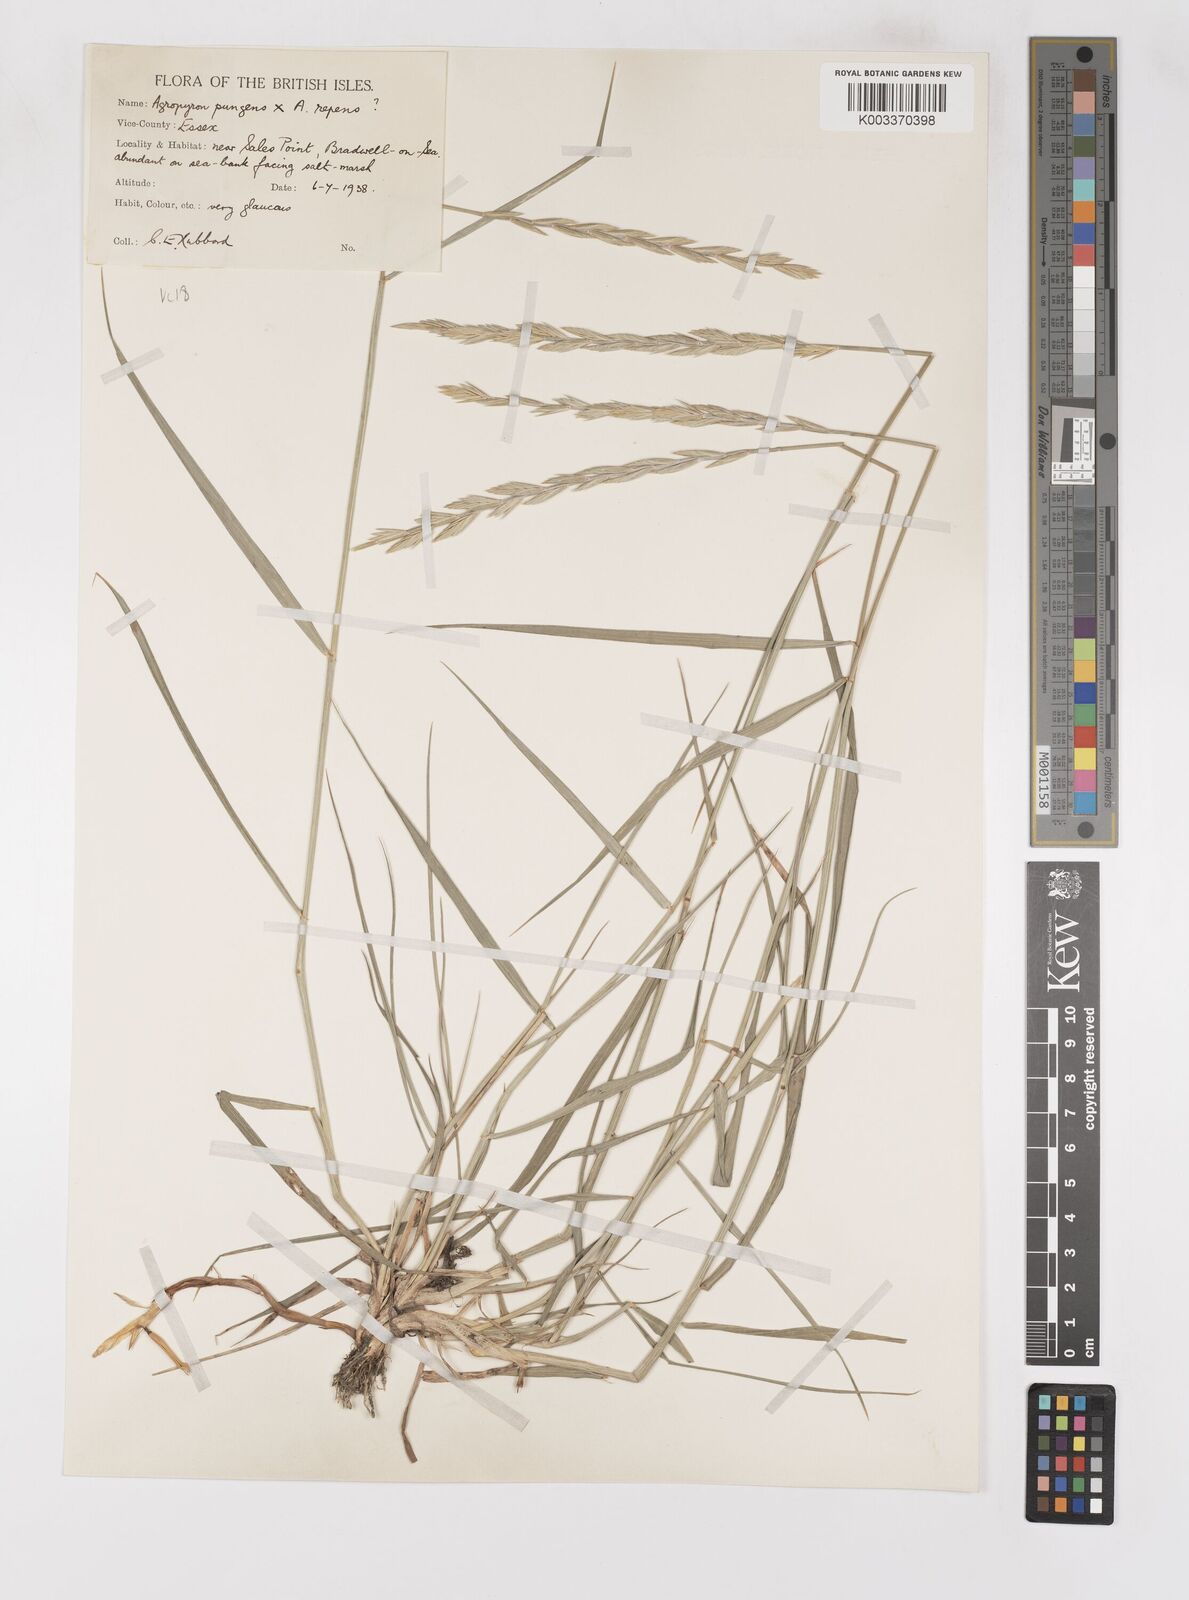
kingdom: Plantae
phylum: Tracheophyta
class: Liliopsida
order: Poales
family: Poaceae
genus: Elymus
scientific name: Elymus oliveri
